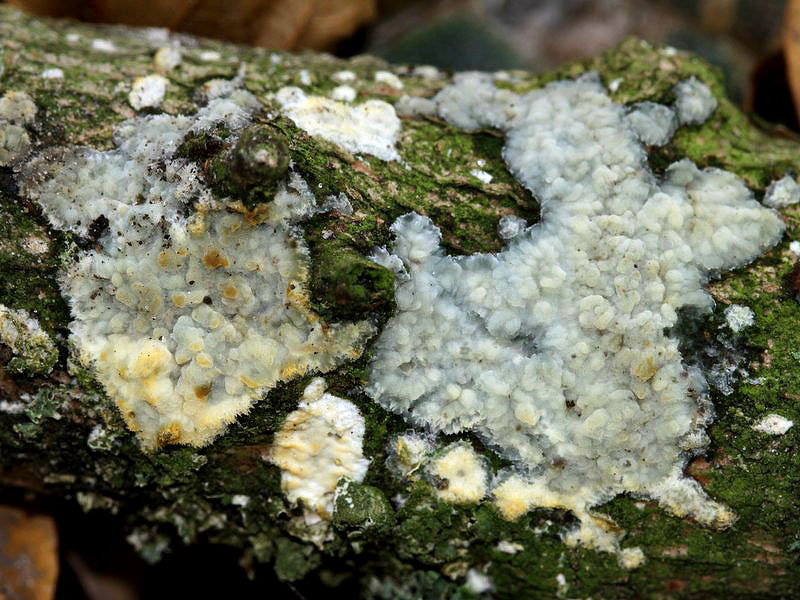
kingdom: Fungi
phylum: Basidiomycota
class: Agaricomycetes
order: Agaricales
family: Radulomycetaceae
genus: Radulomyces
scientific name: Radulomyces confluens
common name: glat naftalinskind
